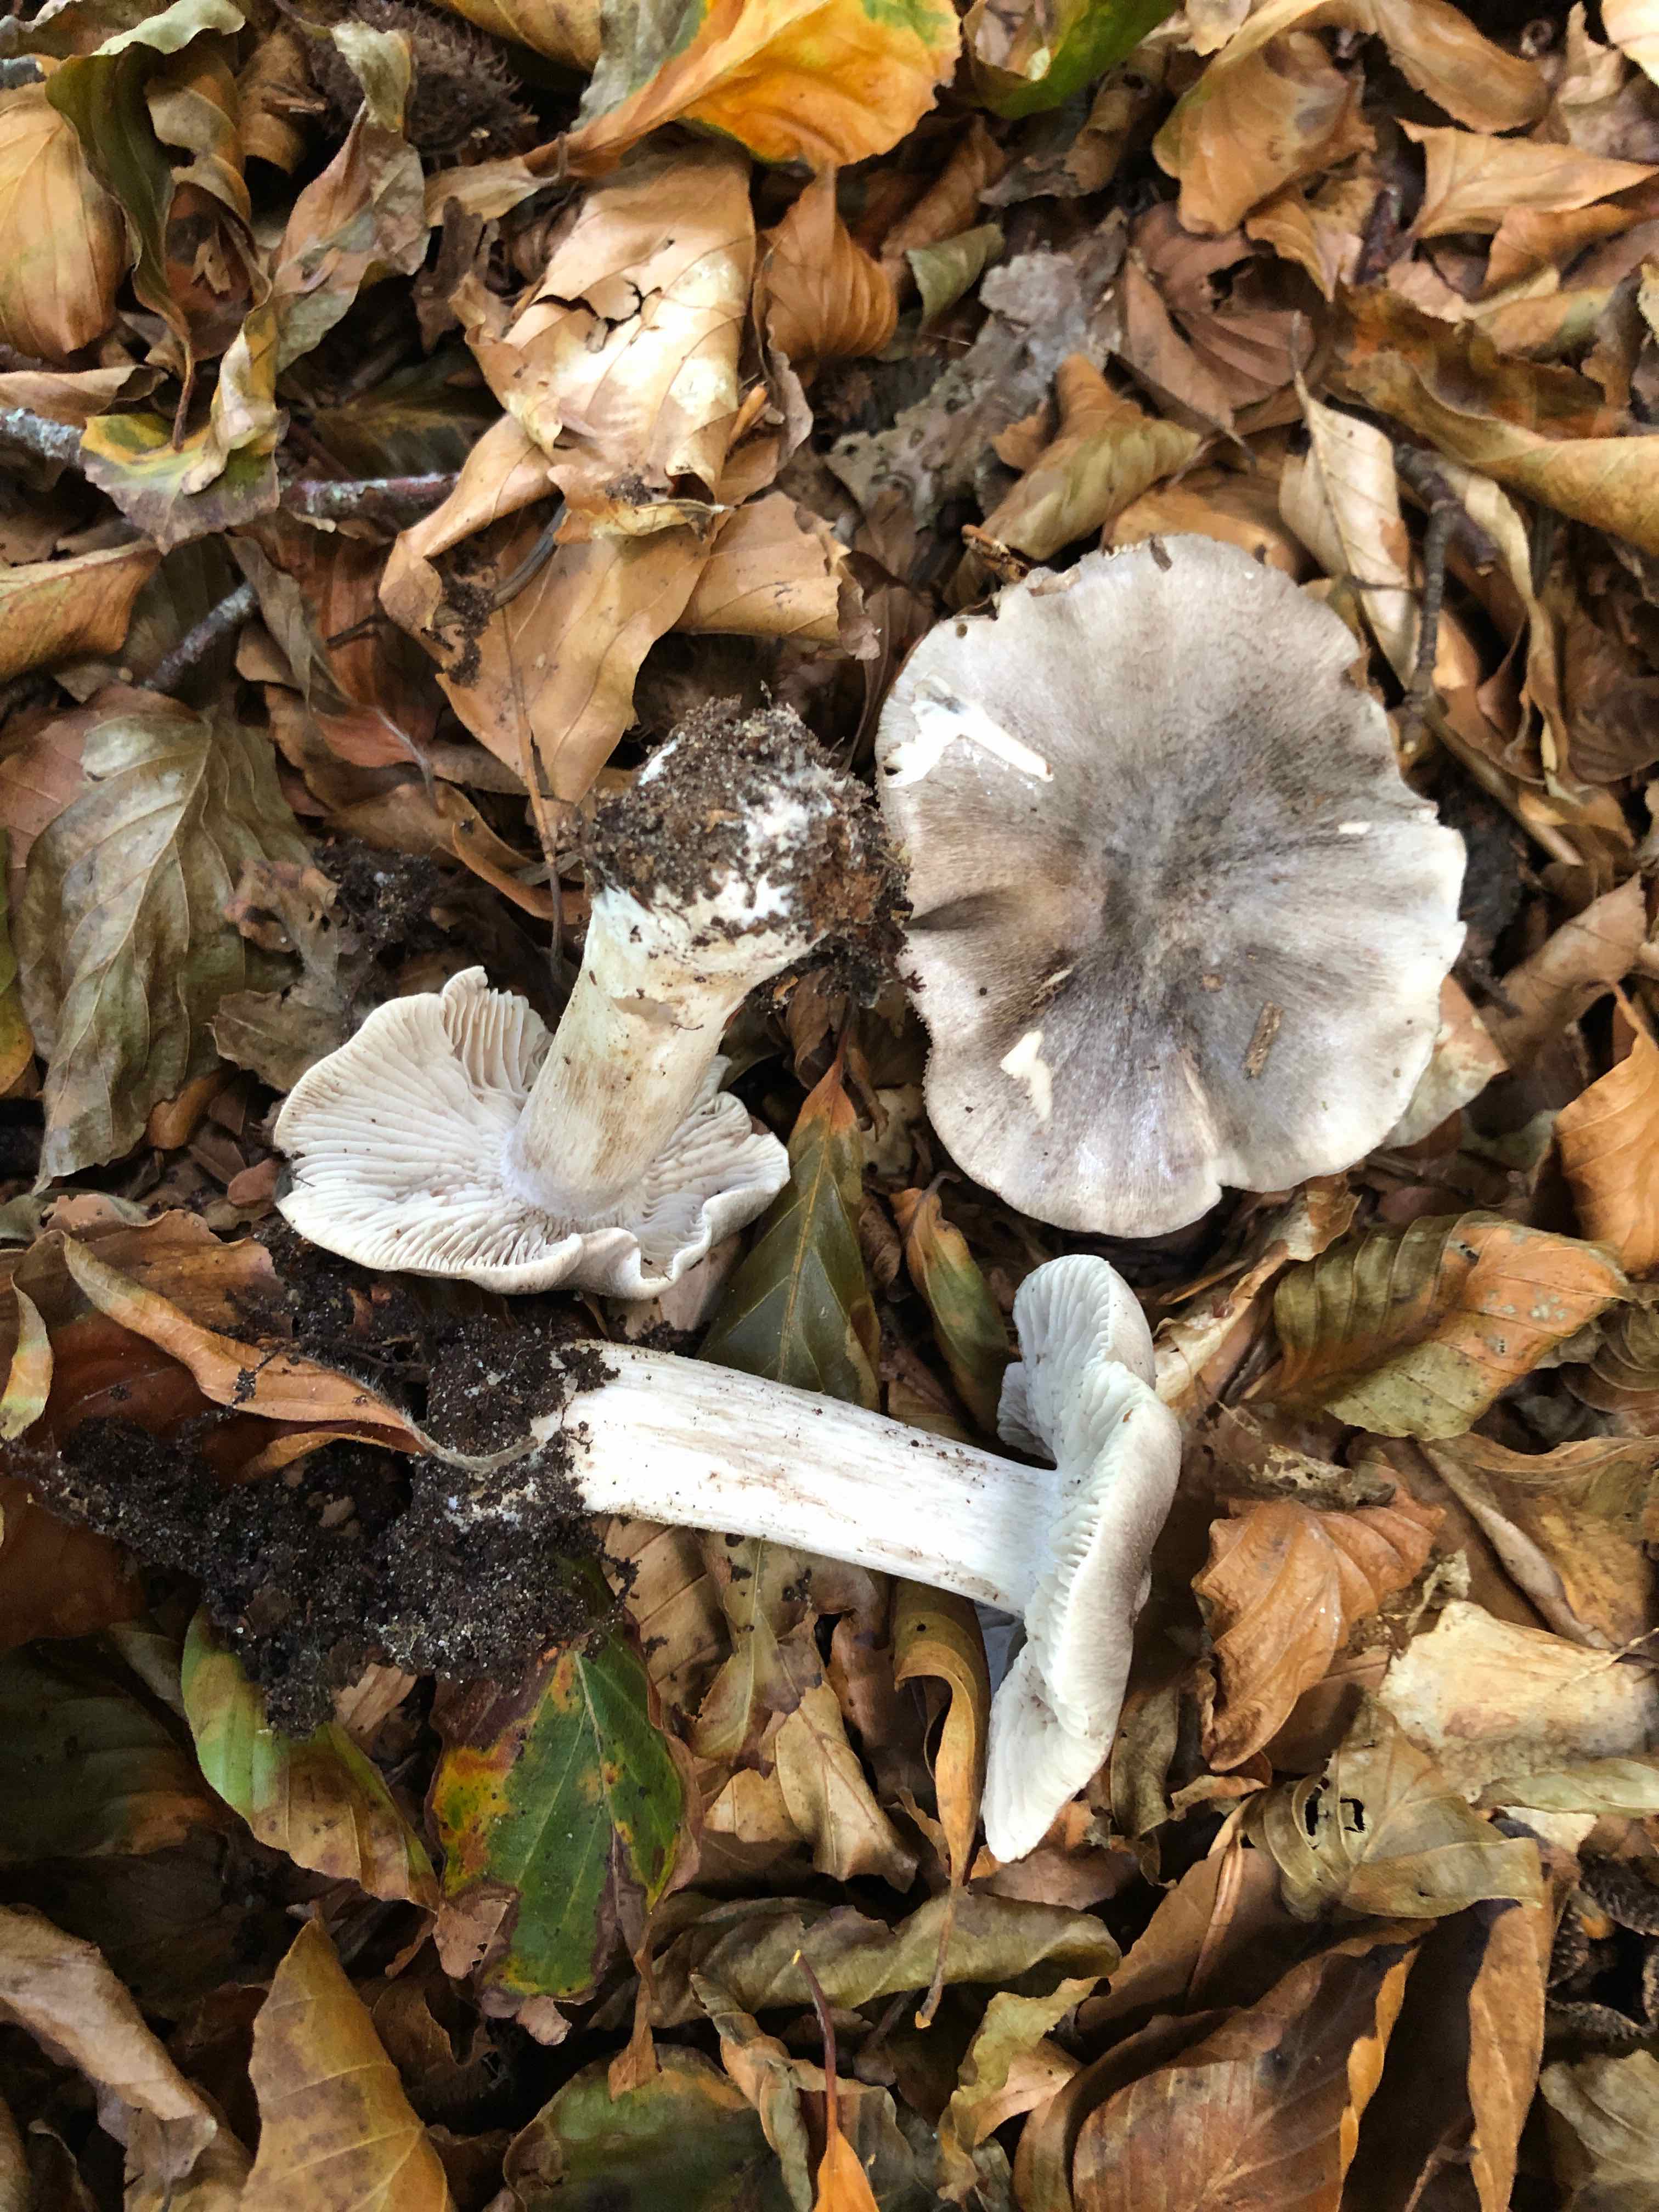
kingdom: Fungi
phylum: Basidiomycota
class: Agaricomycetes
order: Agaricales
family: Tricholomataceae
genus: Tricholoma
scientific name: Tricholoma sciodes
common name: stribet ridderhat
